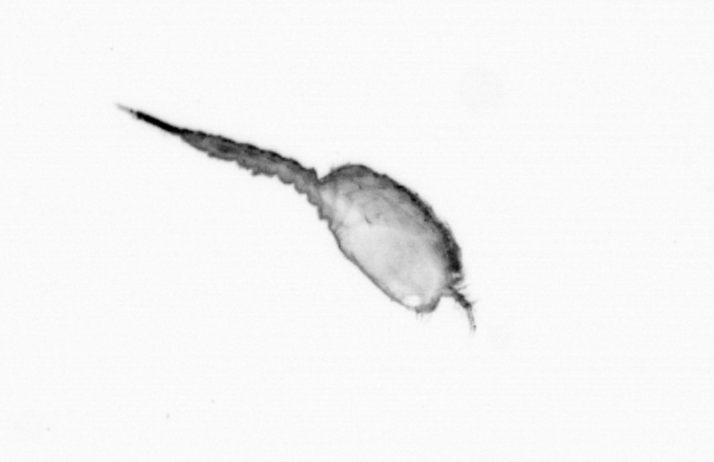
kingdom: Animalia
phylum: Arthropoda
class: Copepoda
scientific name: Copepoda
